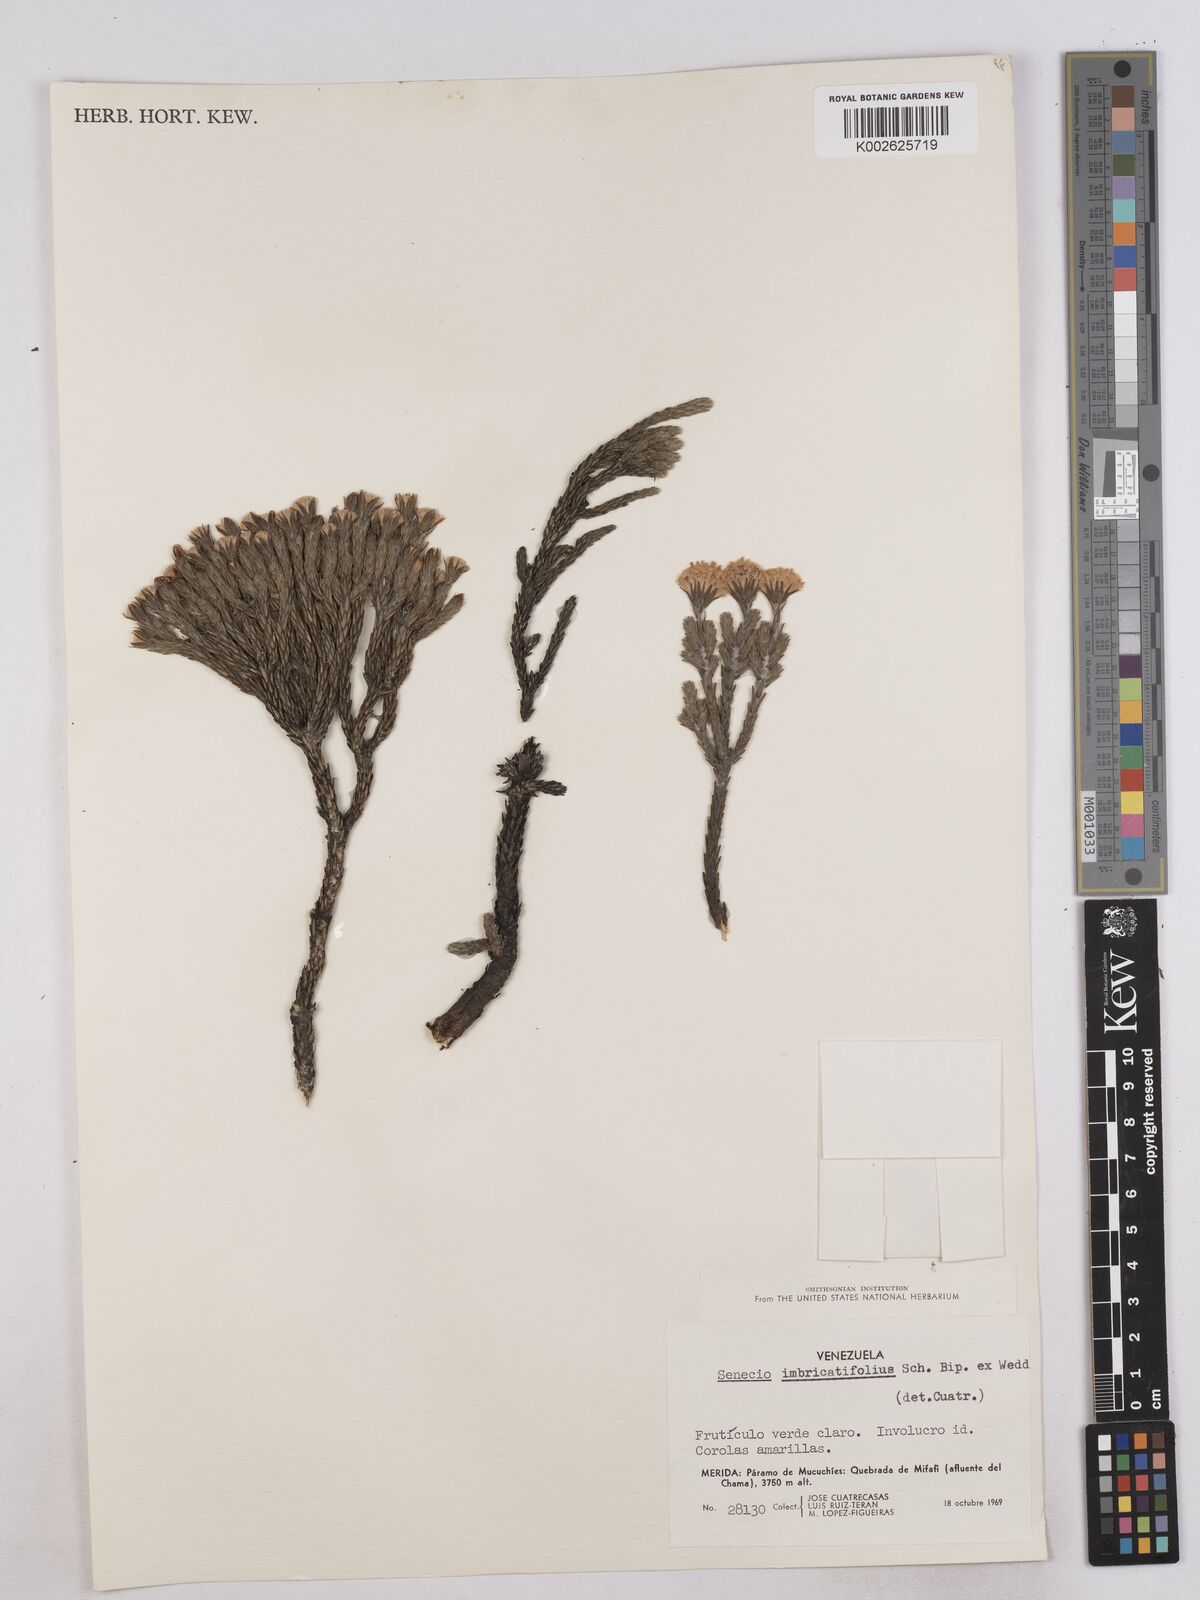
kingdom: Plantae
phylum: Tracheophyta
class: Magnoliopsida
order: Asterales
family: Asteraceae
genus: Monticalia
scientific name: Monticalia imbricatifolia
